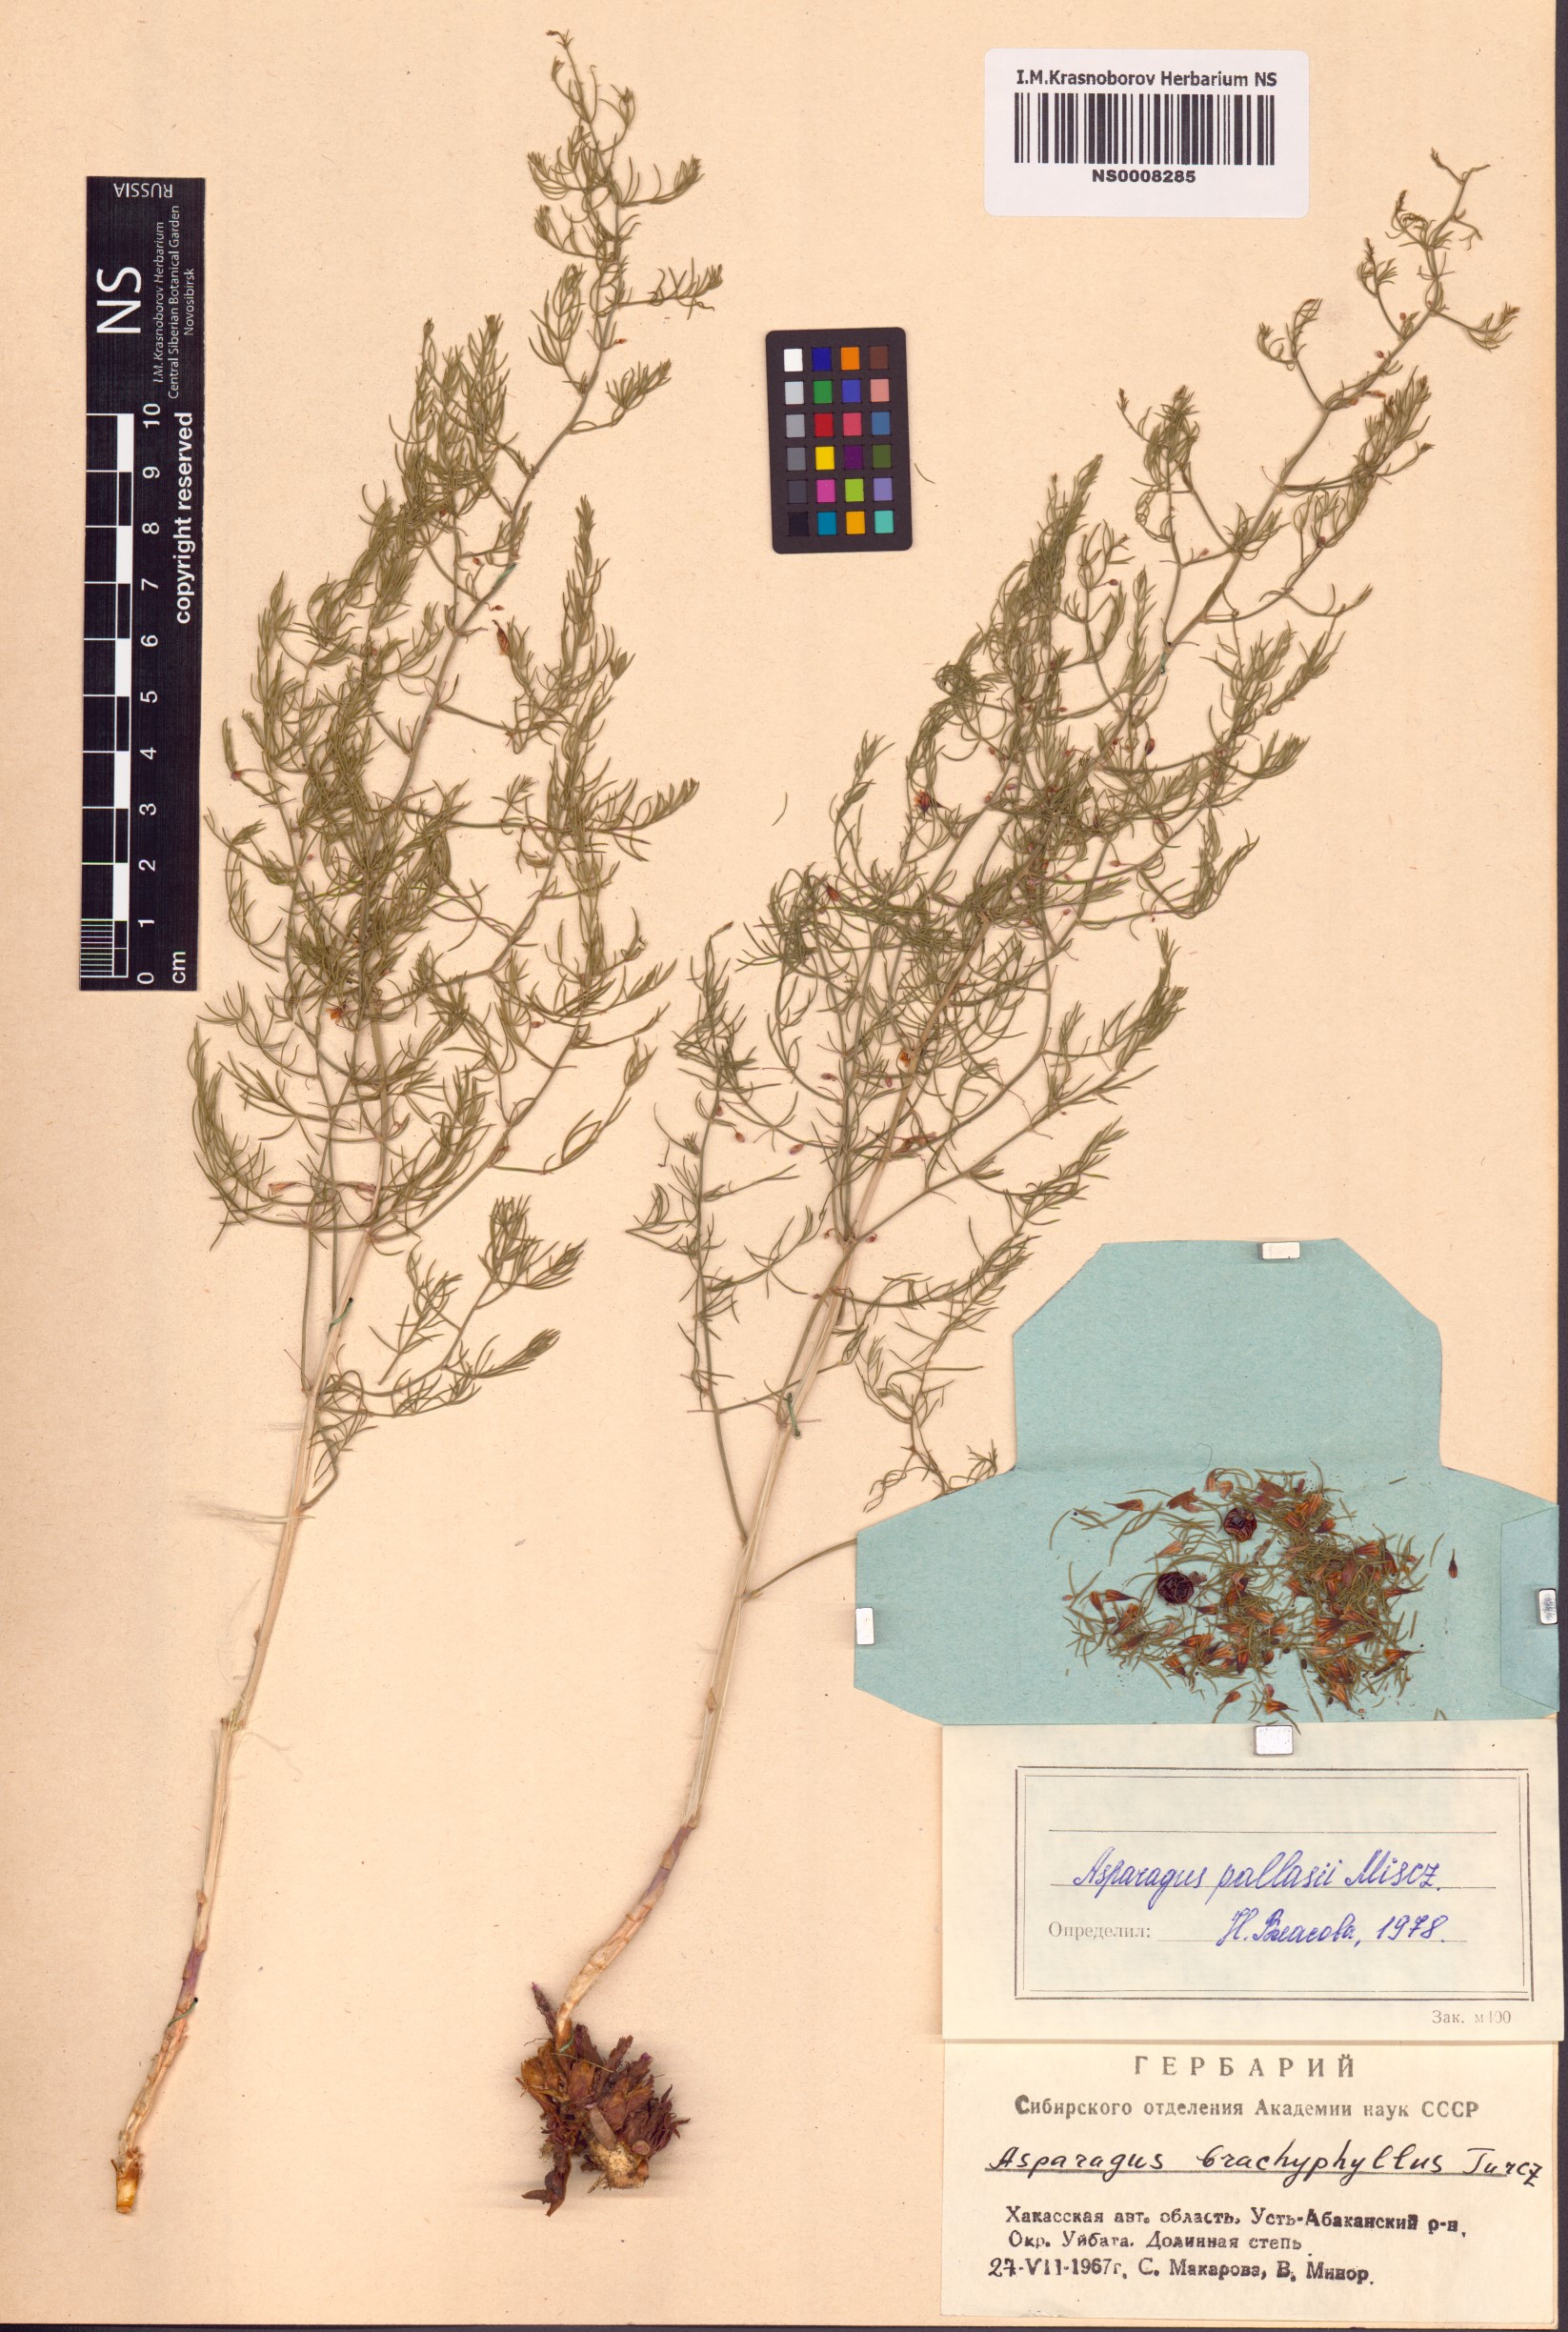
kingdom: Plantae
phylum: Tracheophyta
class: Liliopsida
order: Asparagales
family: Asparagaceae
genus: Asparagus
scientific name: Asparagus pallasii
